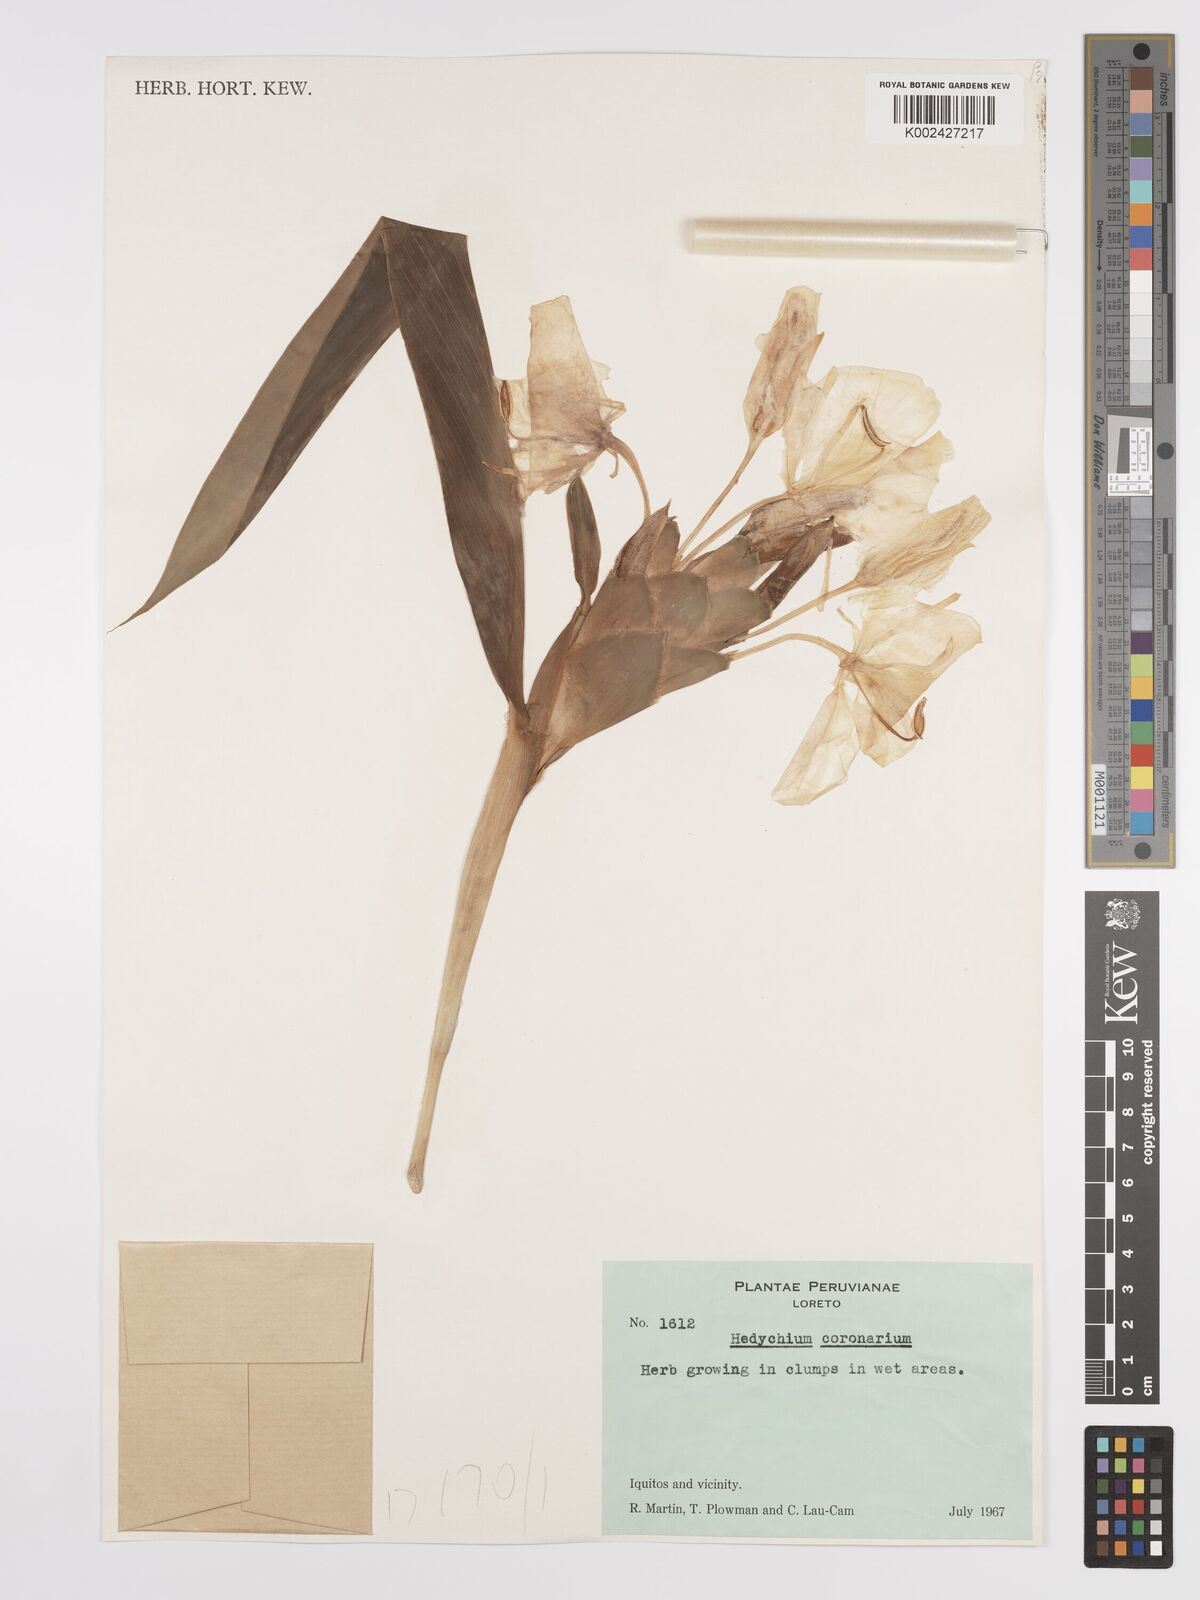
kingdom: Plantae
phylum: Tracheophyta
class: Liliopsida
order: Zingiberales
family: Zingiberaceae
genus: Hedychium
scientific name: Hedychium coronarium
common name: White garland-lily
